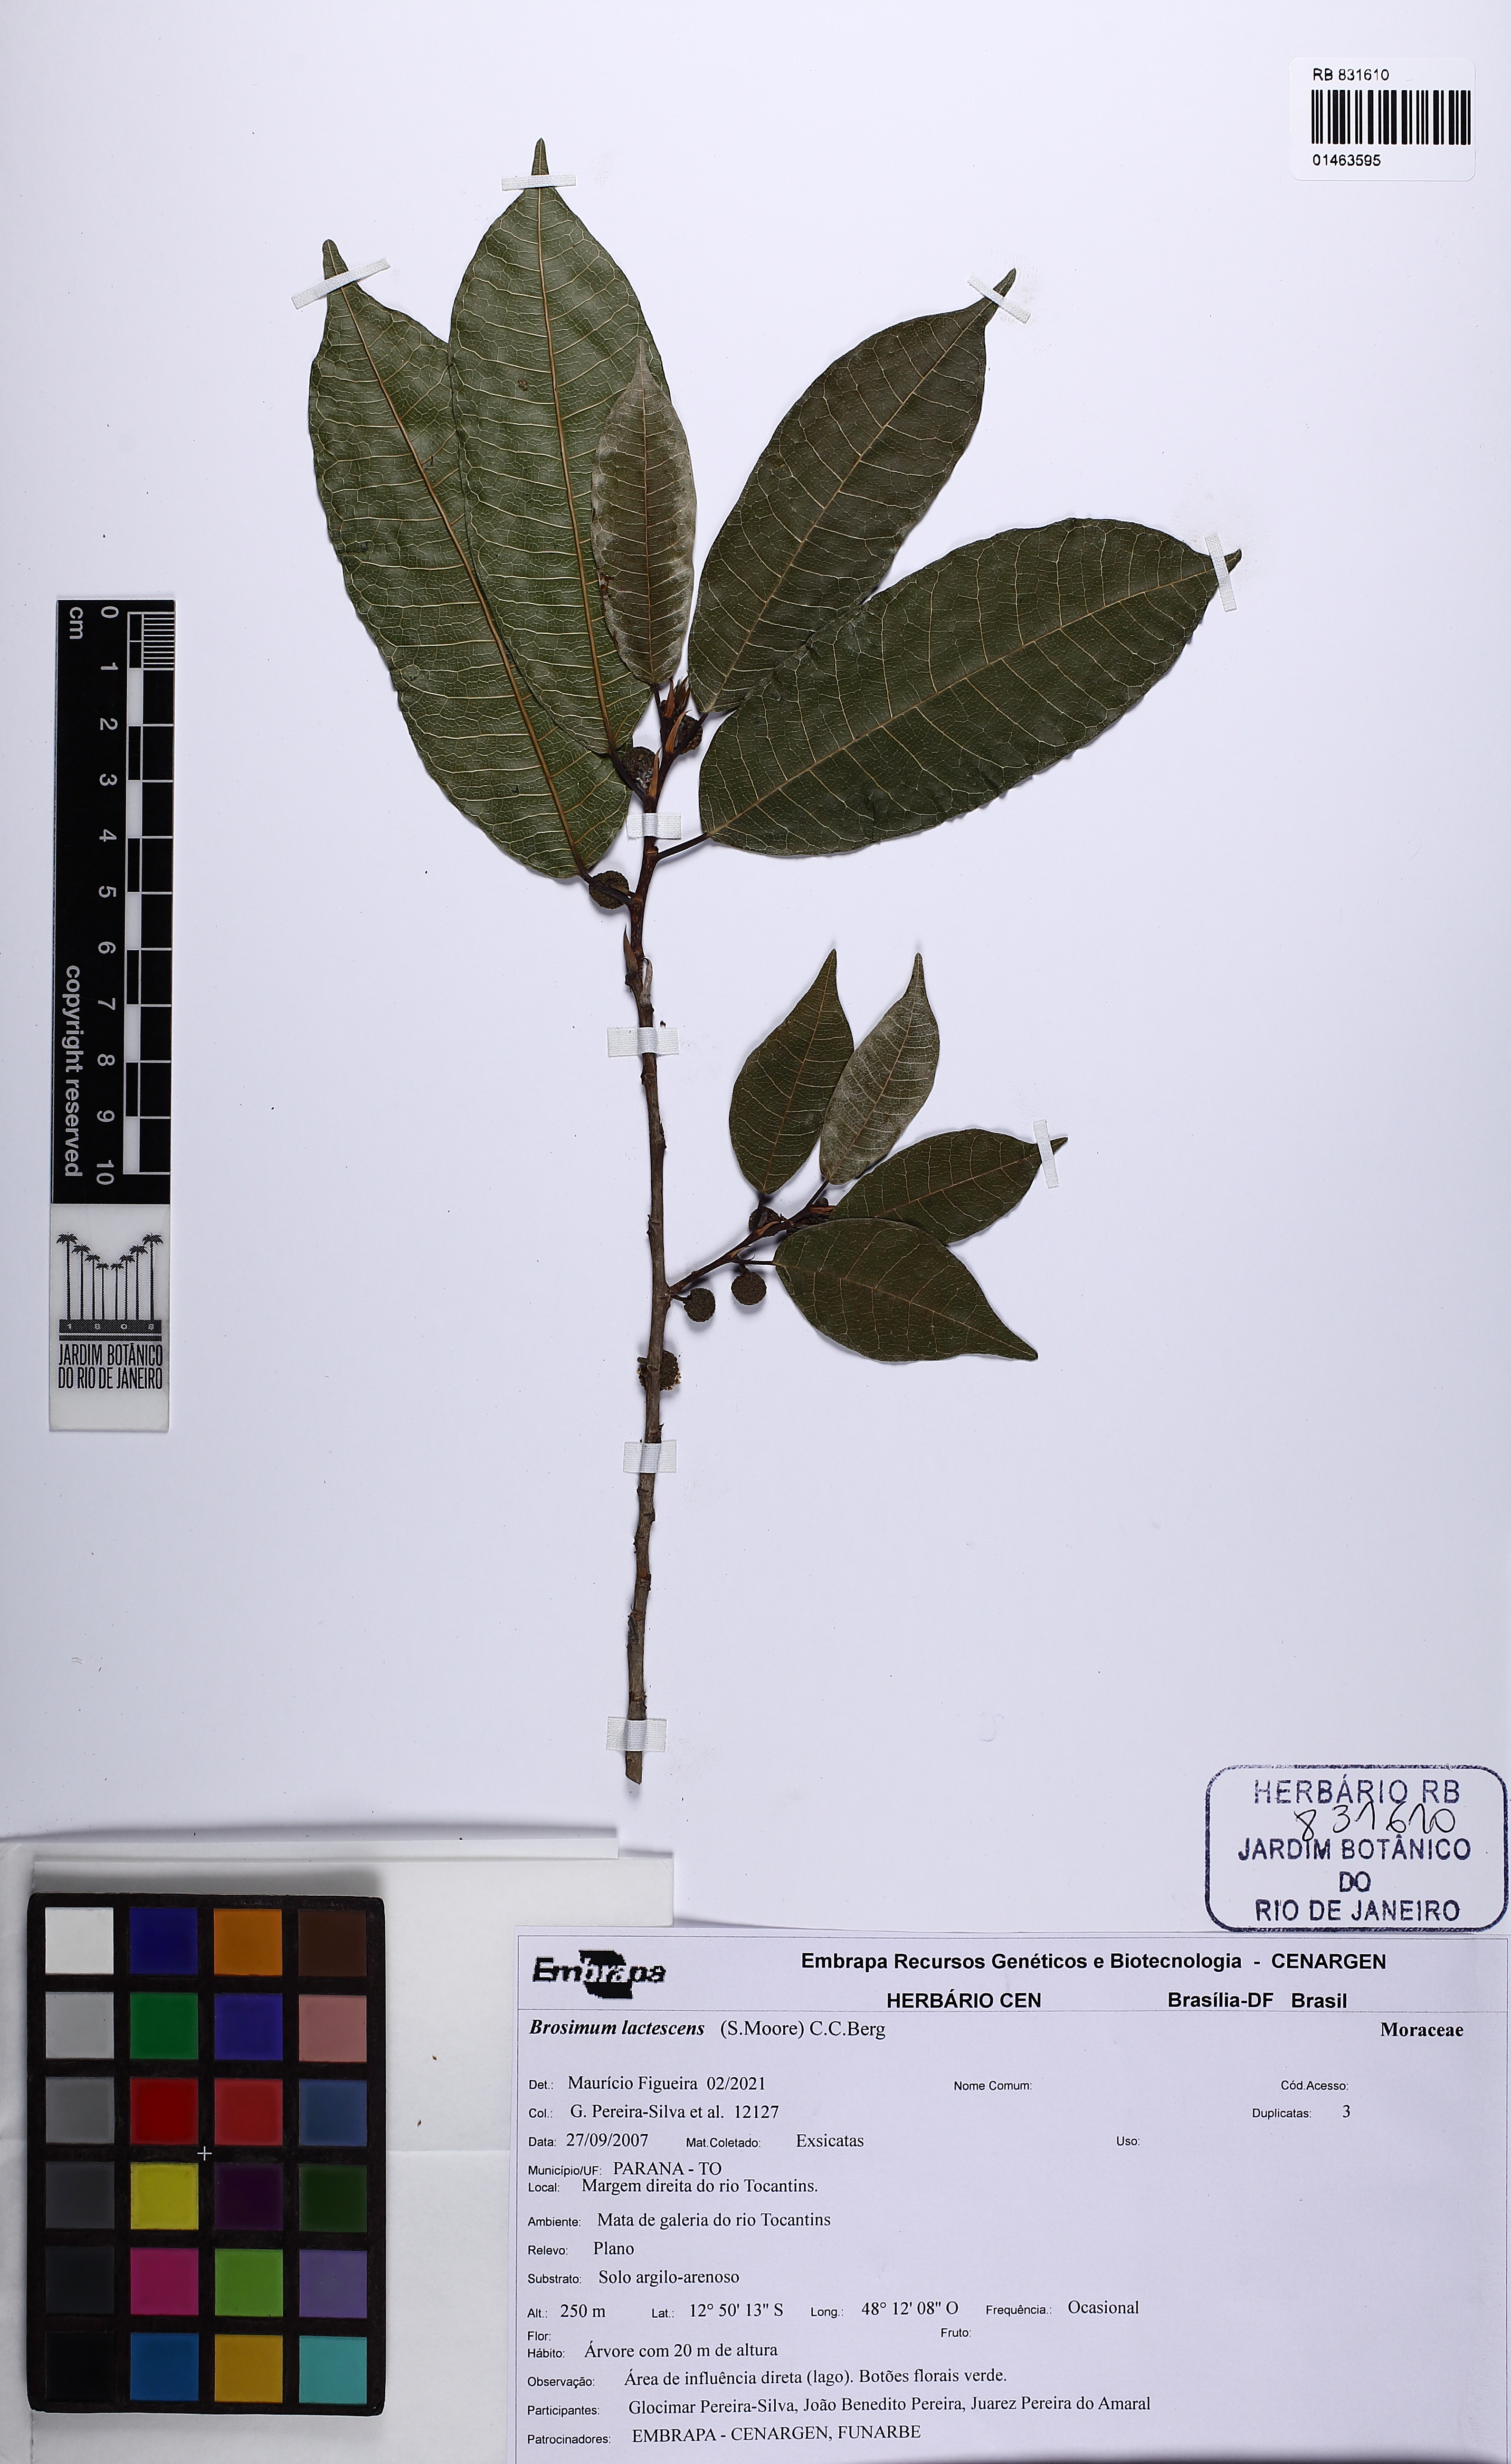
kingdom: Plantae
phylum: Tracheophyta
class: Magnoliopsida
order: Rosales
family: Moraceae
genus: Brosimum
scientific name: Brosimum lactescens
